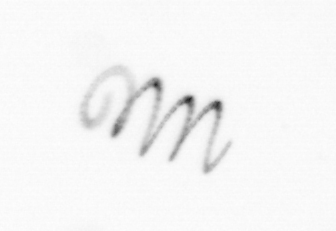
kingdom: Chromista
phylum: Ochrophyta
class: Bacillariophyceae
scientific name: Bacillariophyceae
